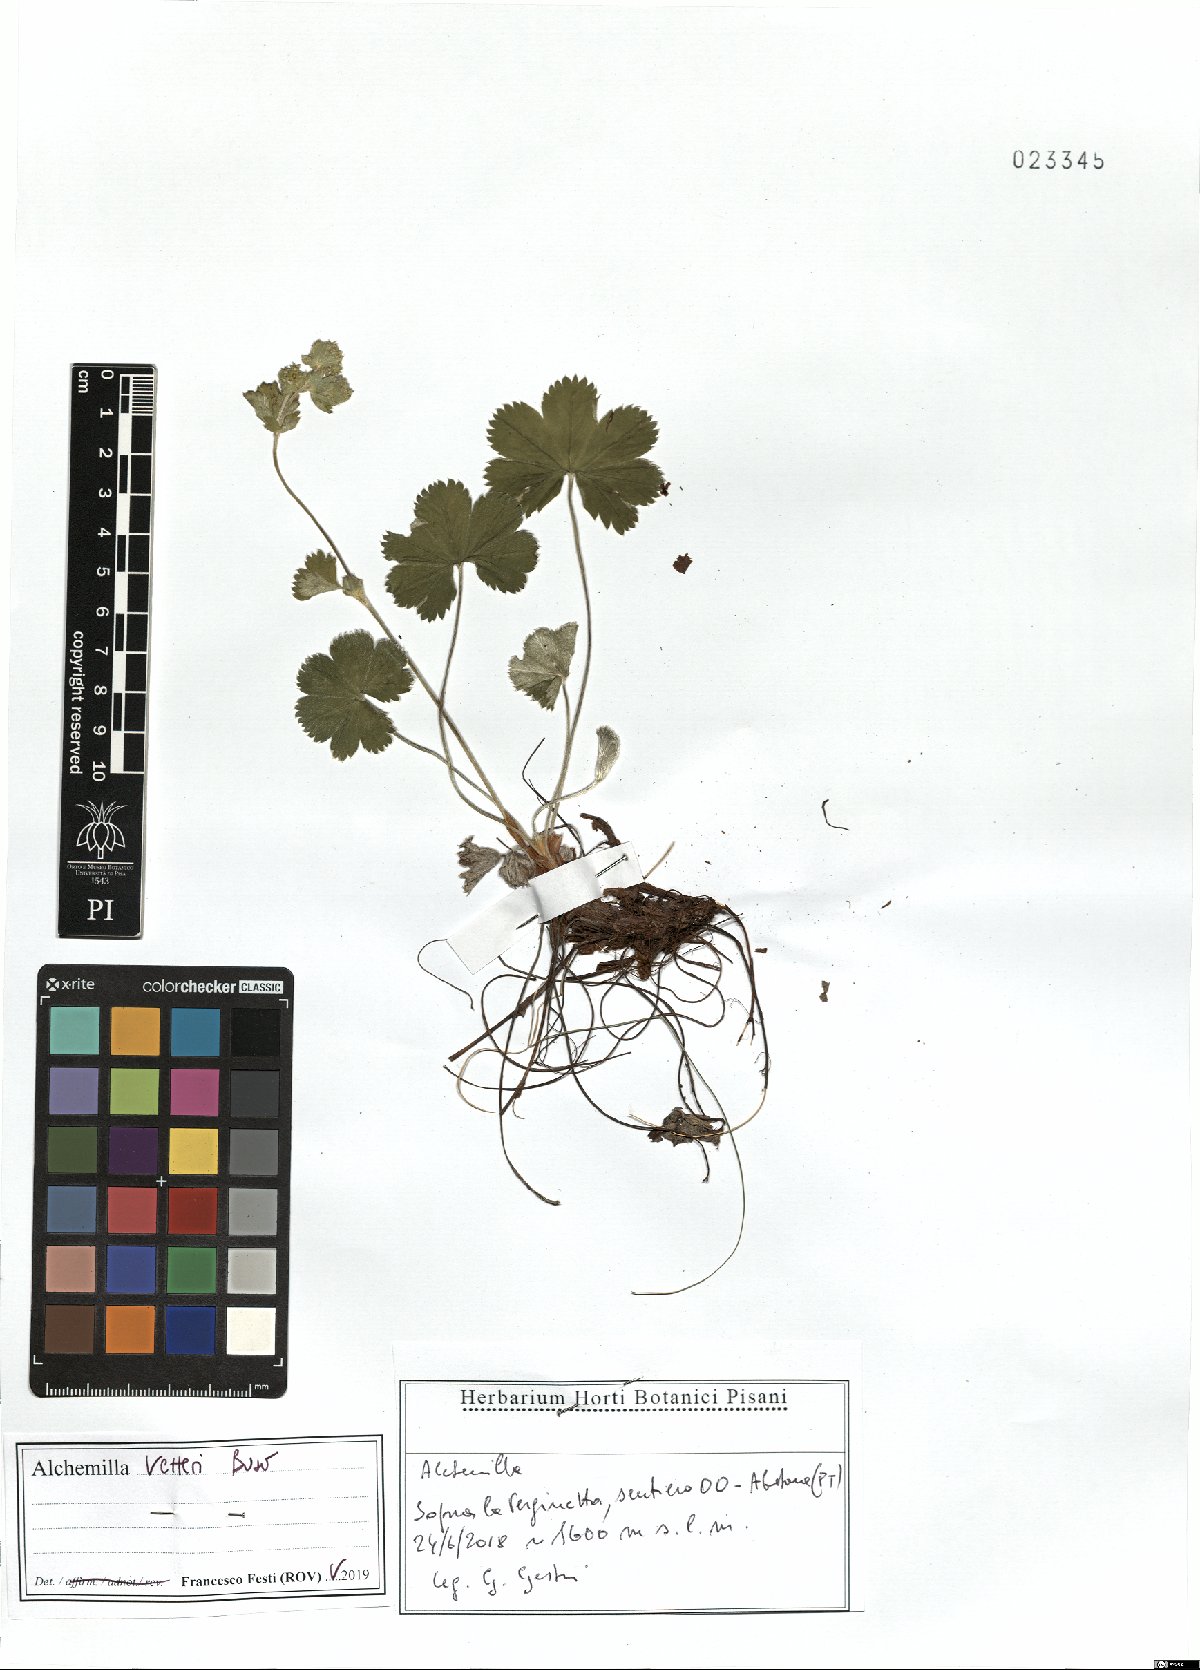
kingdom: Plantae
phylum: Tracheophyta
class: Magnoliopsida
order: Rosales
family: Rosaceae
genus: Alchemilla
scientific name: Alchemilla vetteri
